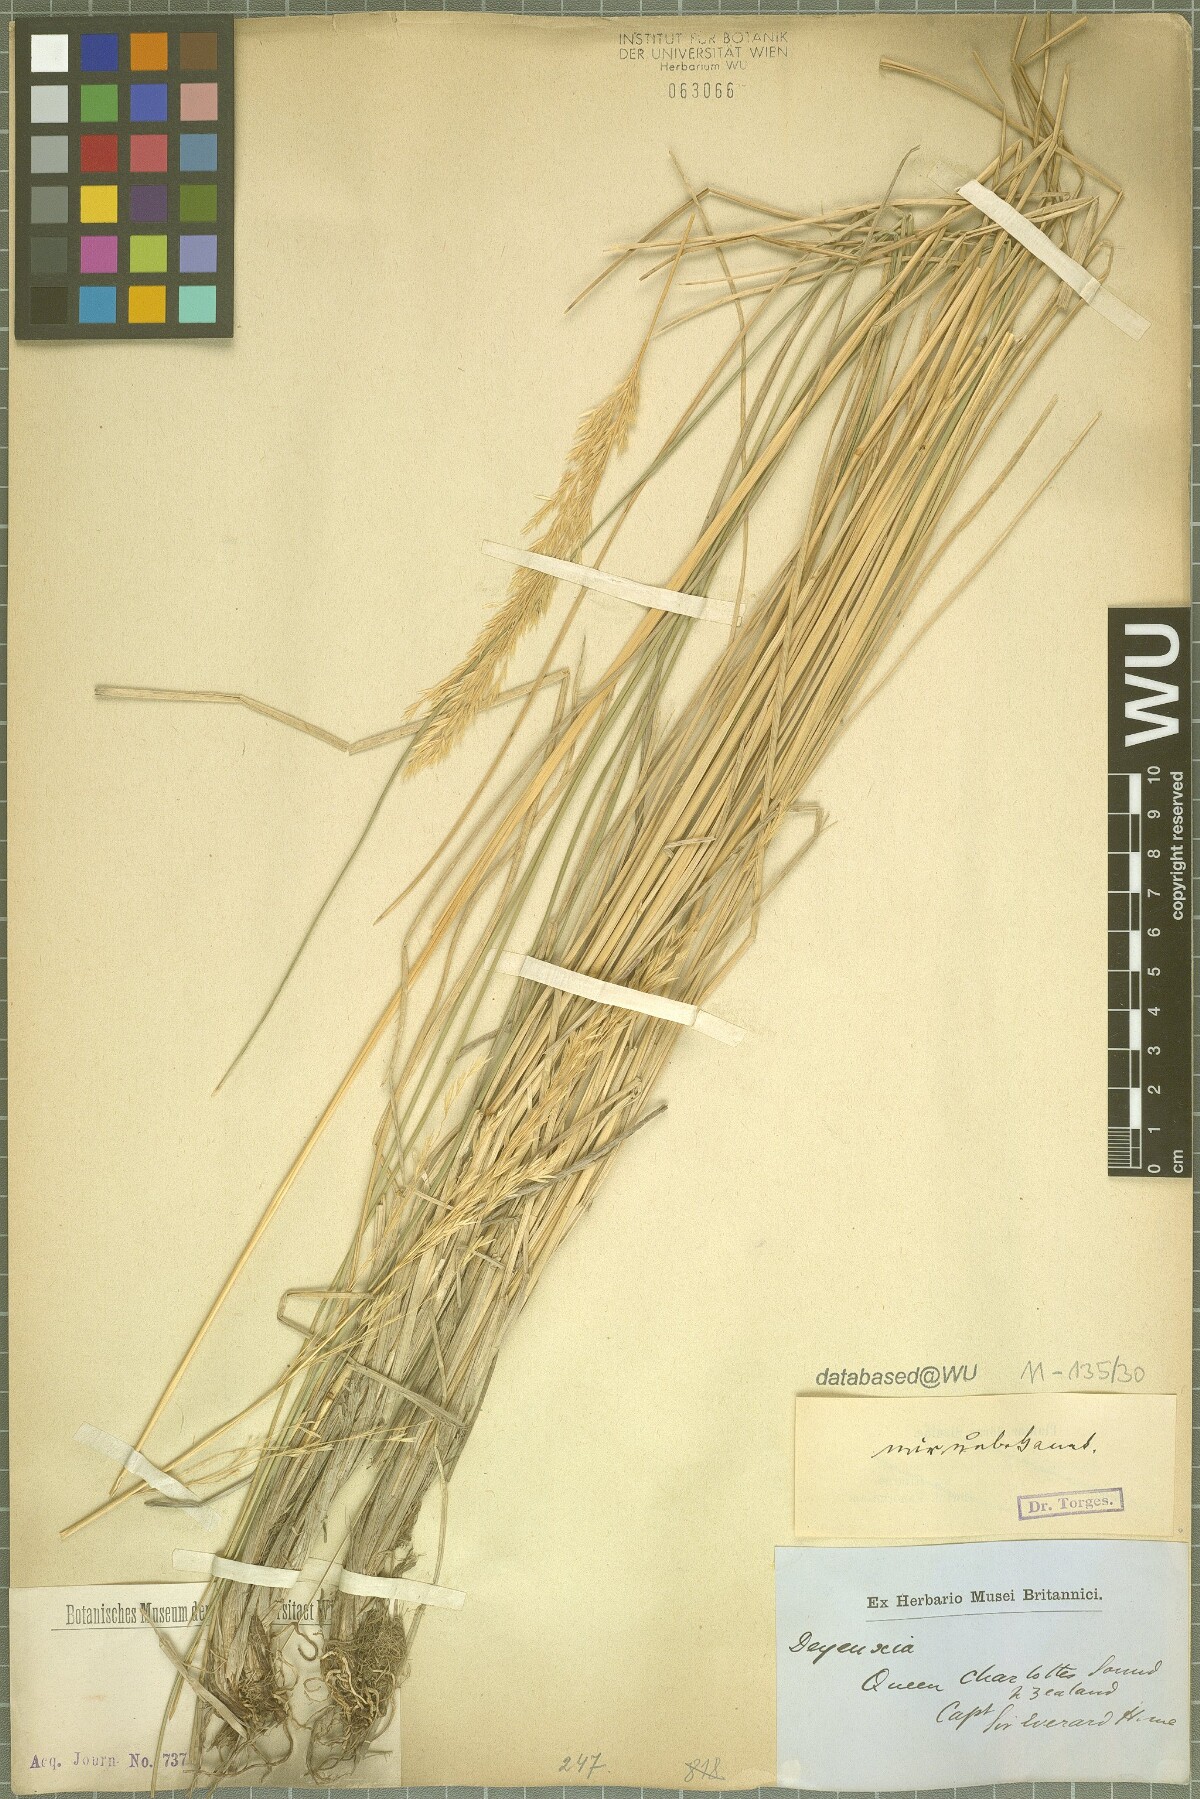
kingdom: Plantae
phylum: Tracheophyta
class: Liliopsida
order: Poales
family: Poaceae
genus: Calamagrostis
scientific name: Calamagrostis
